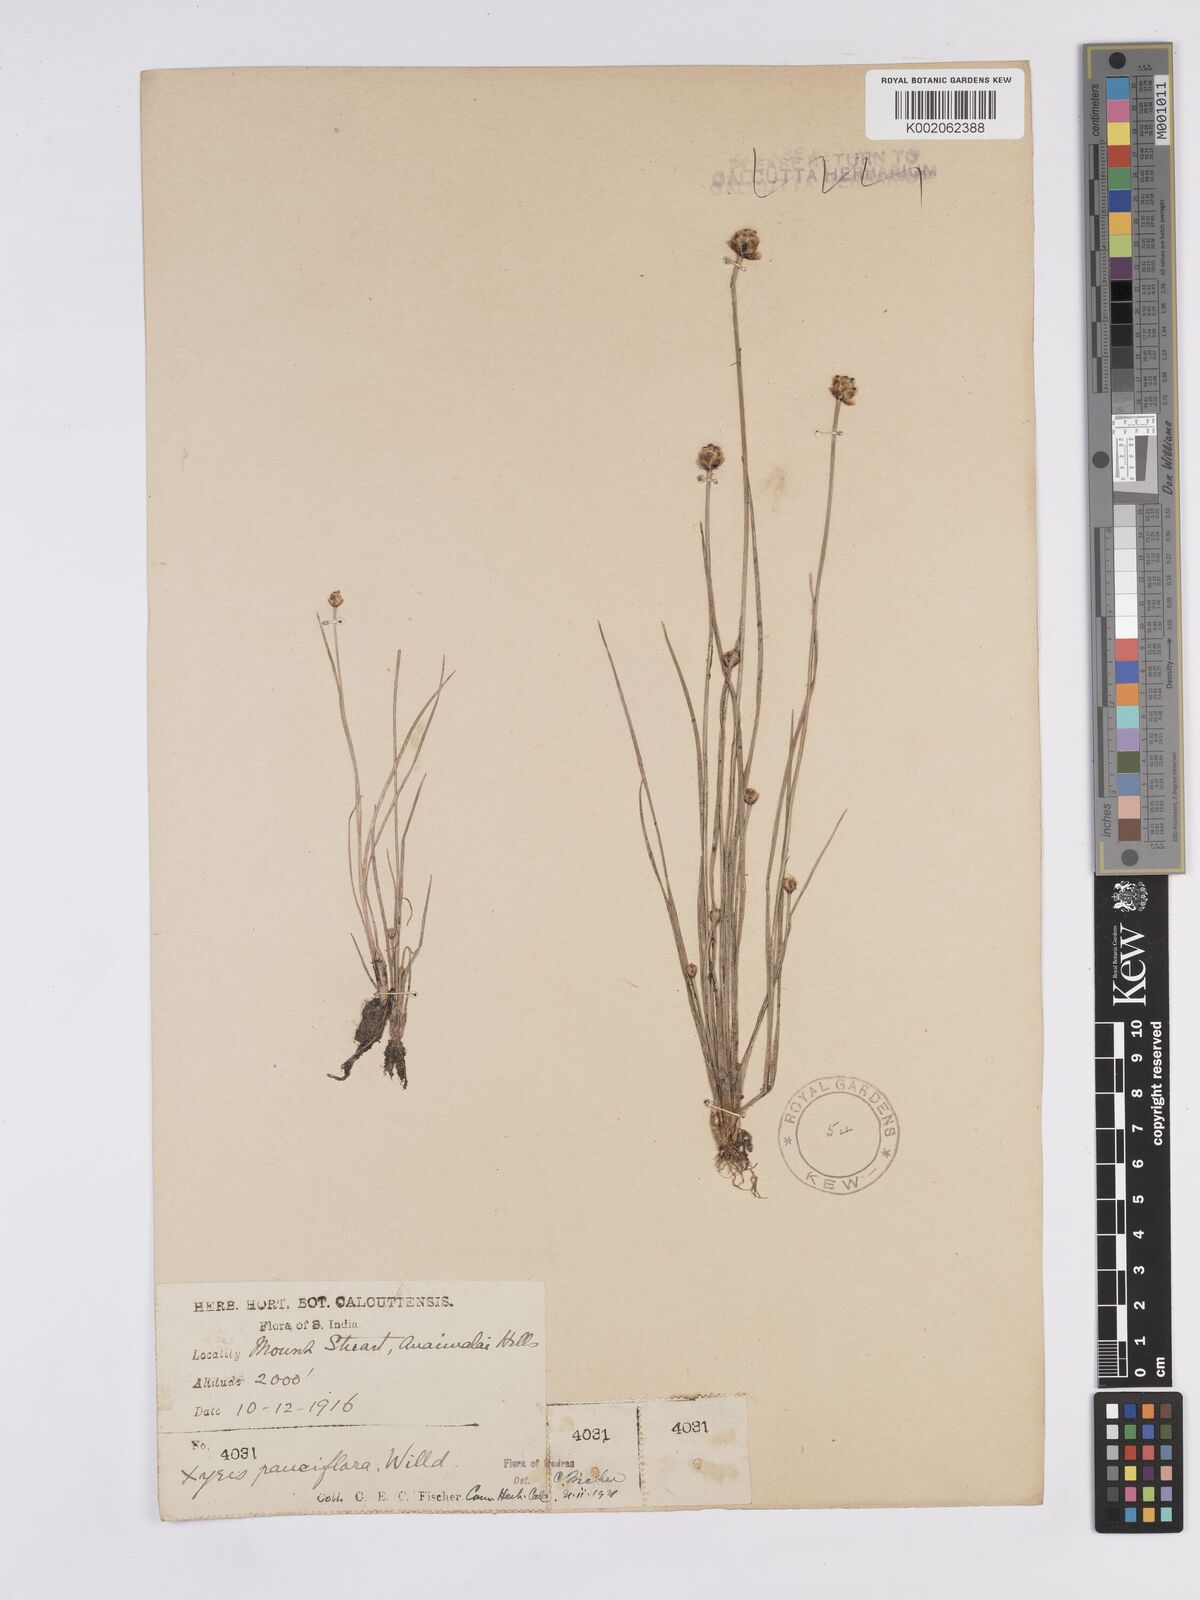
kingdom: Plantae
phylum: Tracheophyta
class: Liliopsida
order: Poales
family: Xyridaceae
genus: Xyris
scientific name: Xyris pauciflora
